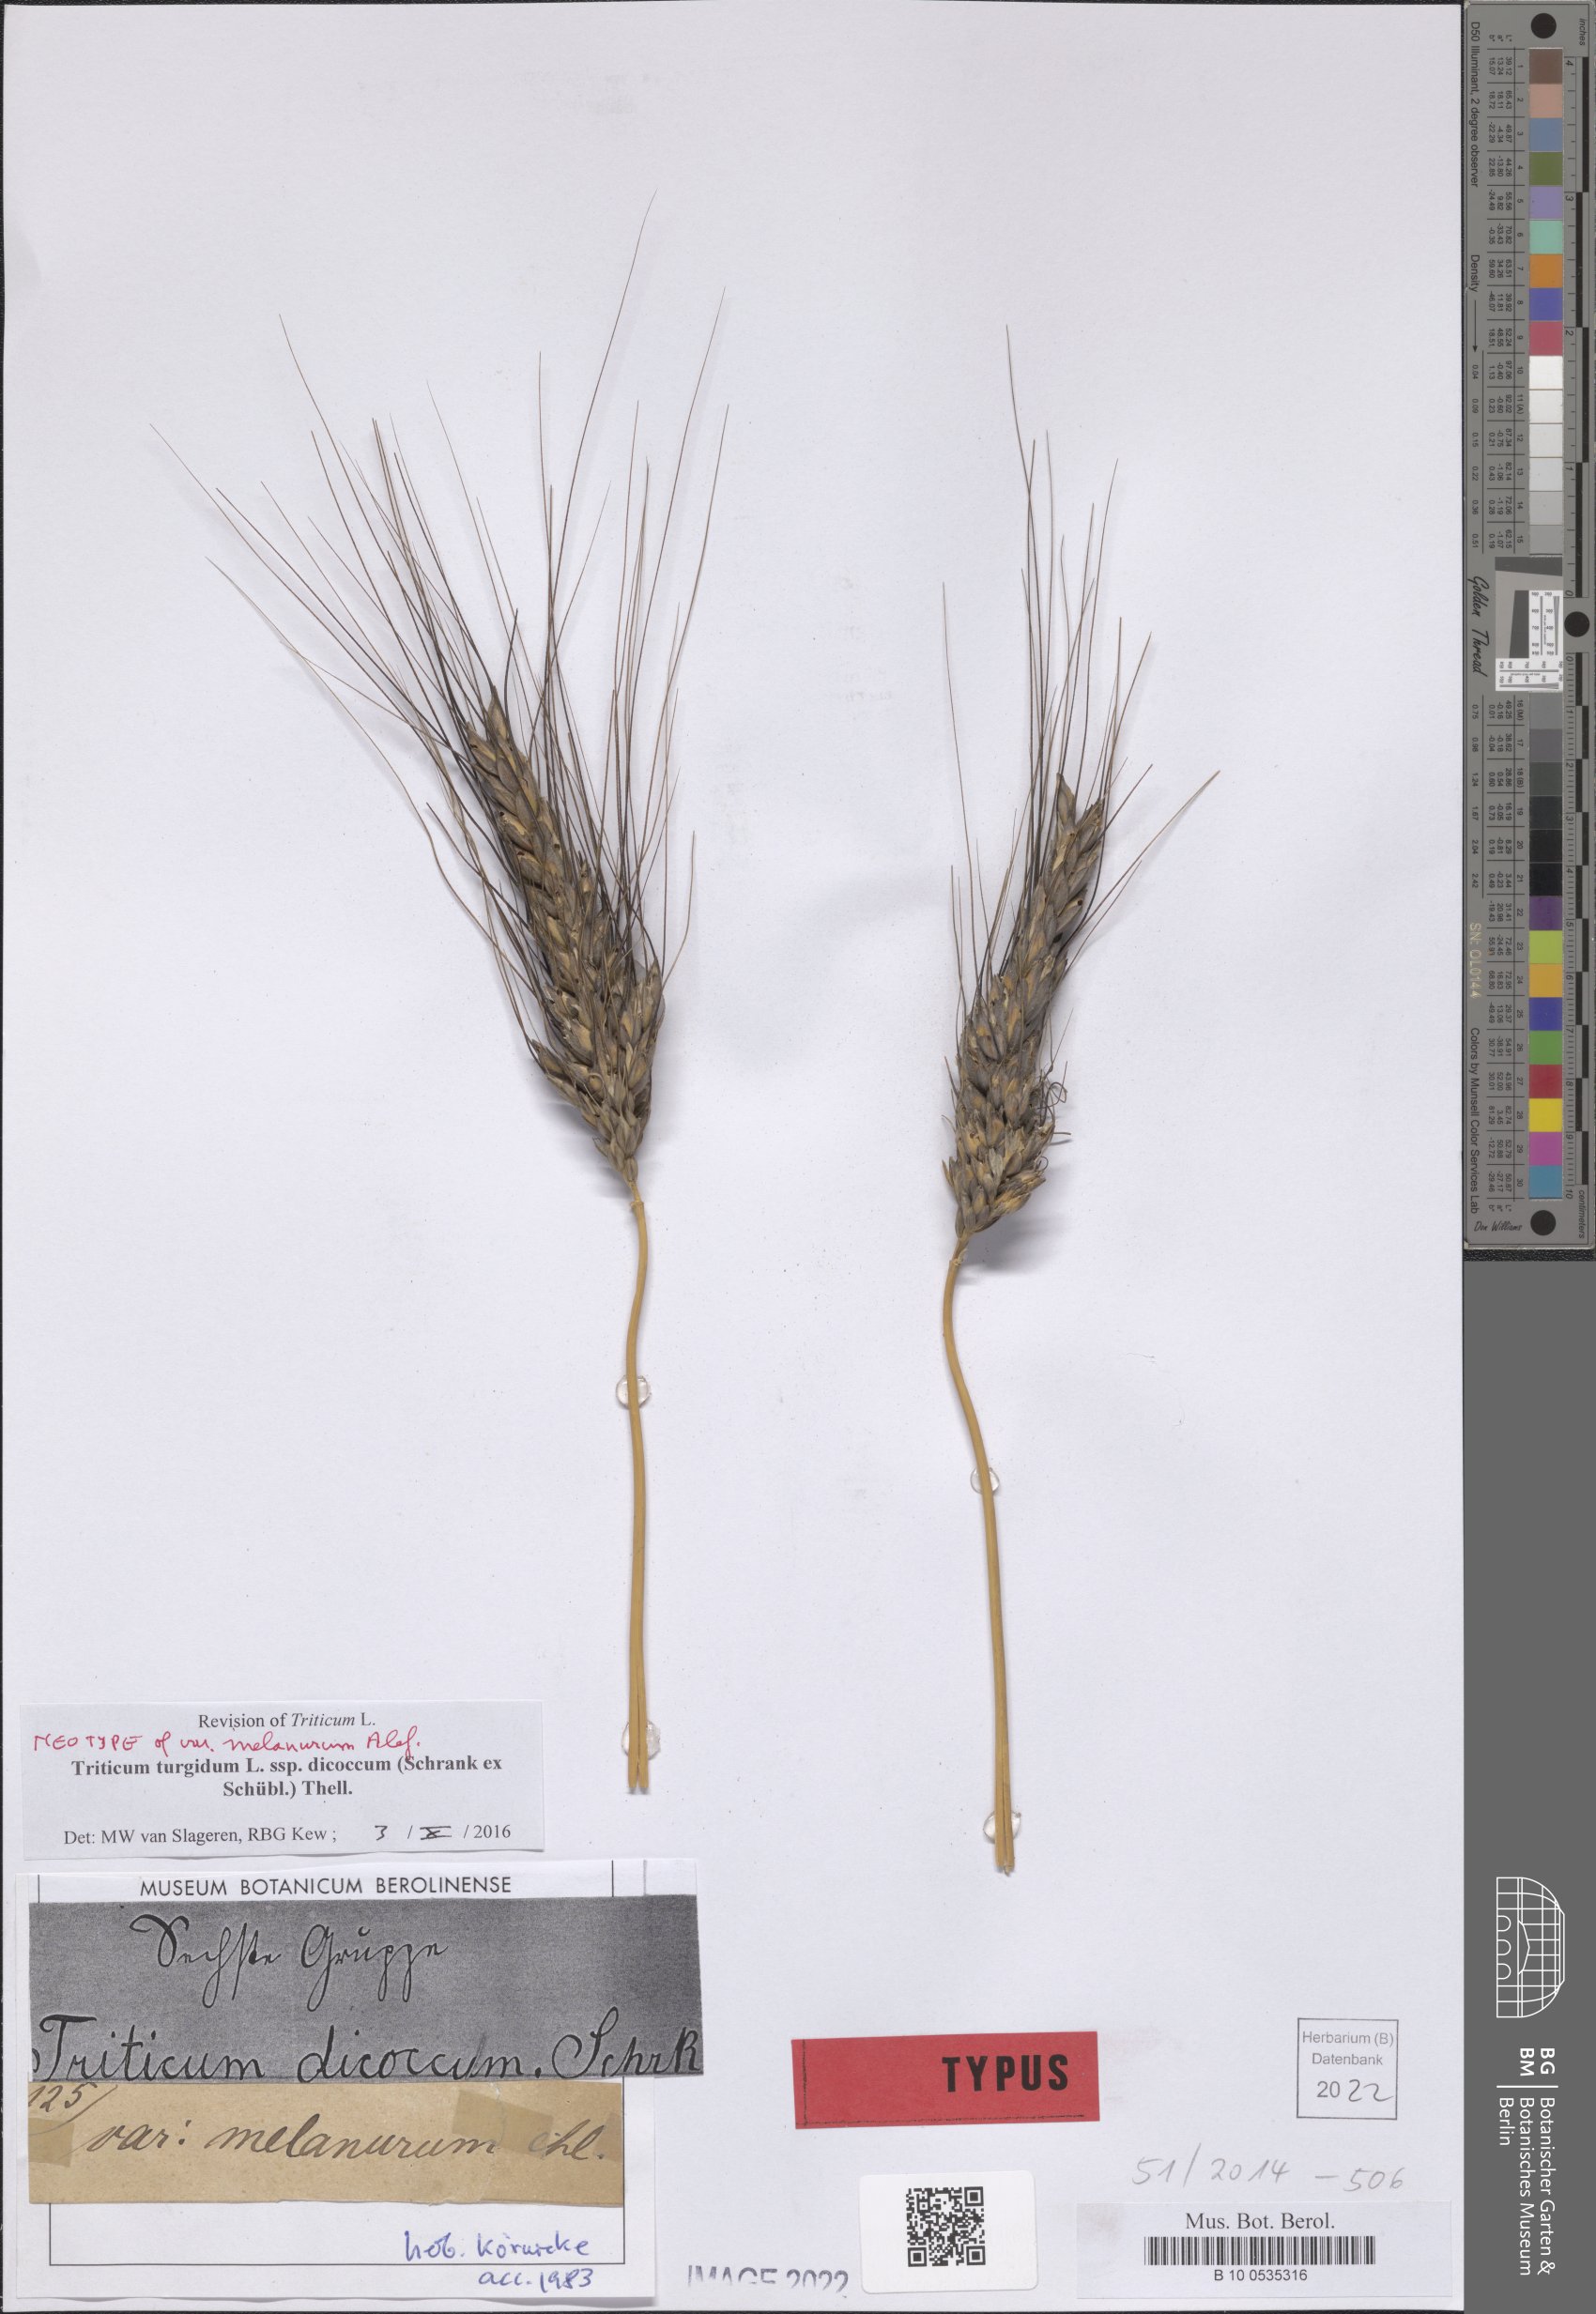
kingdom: Plantae
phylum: Tracheophyta
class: Liliopsida
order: Poales
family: Poaceae
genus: Triticum
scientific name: Triticum turgidum
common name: Rivet wheat
